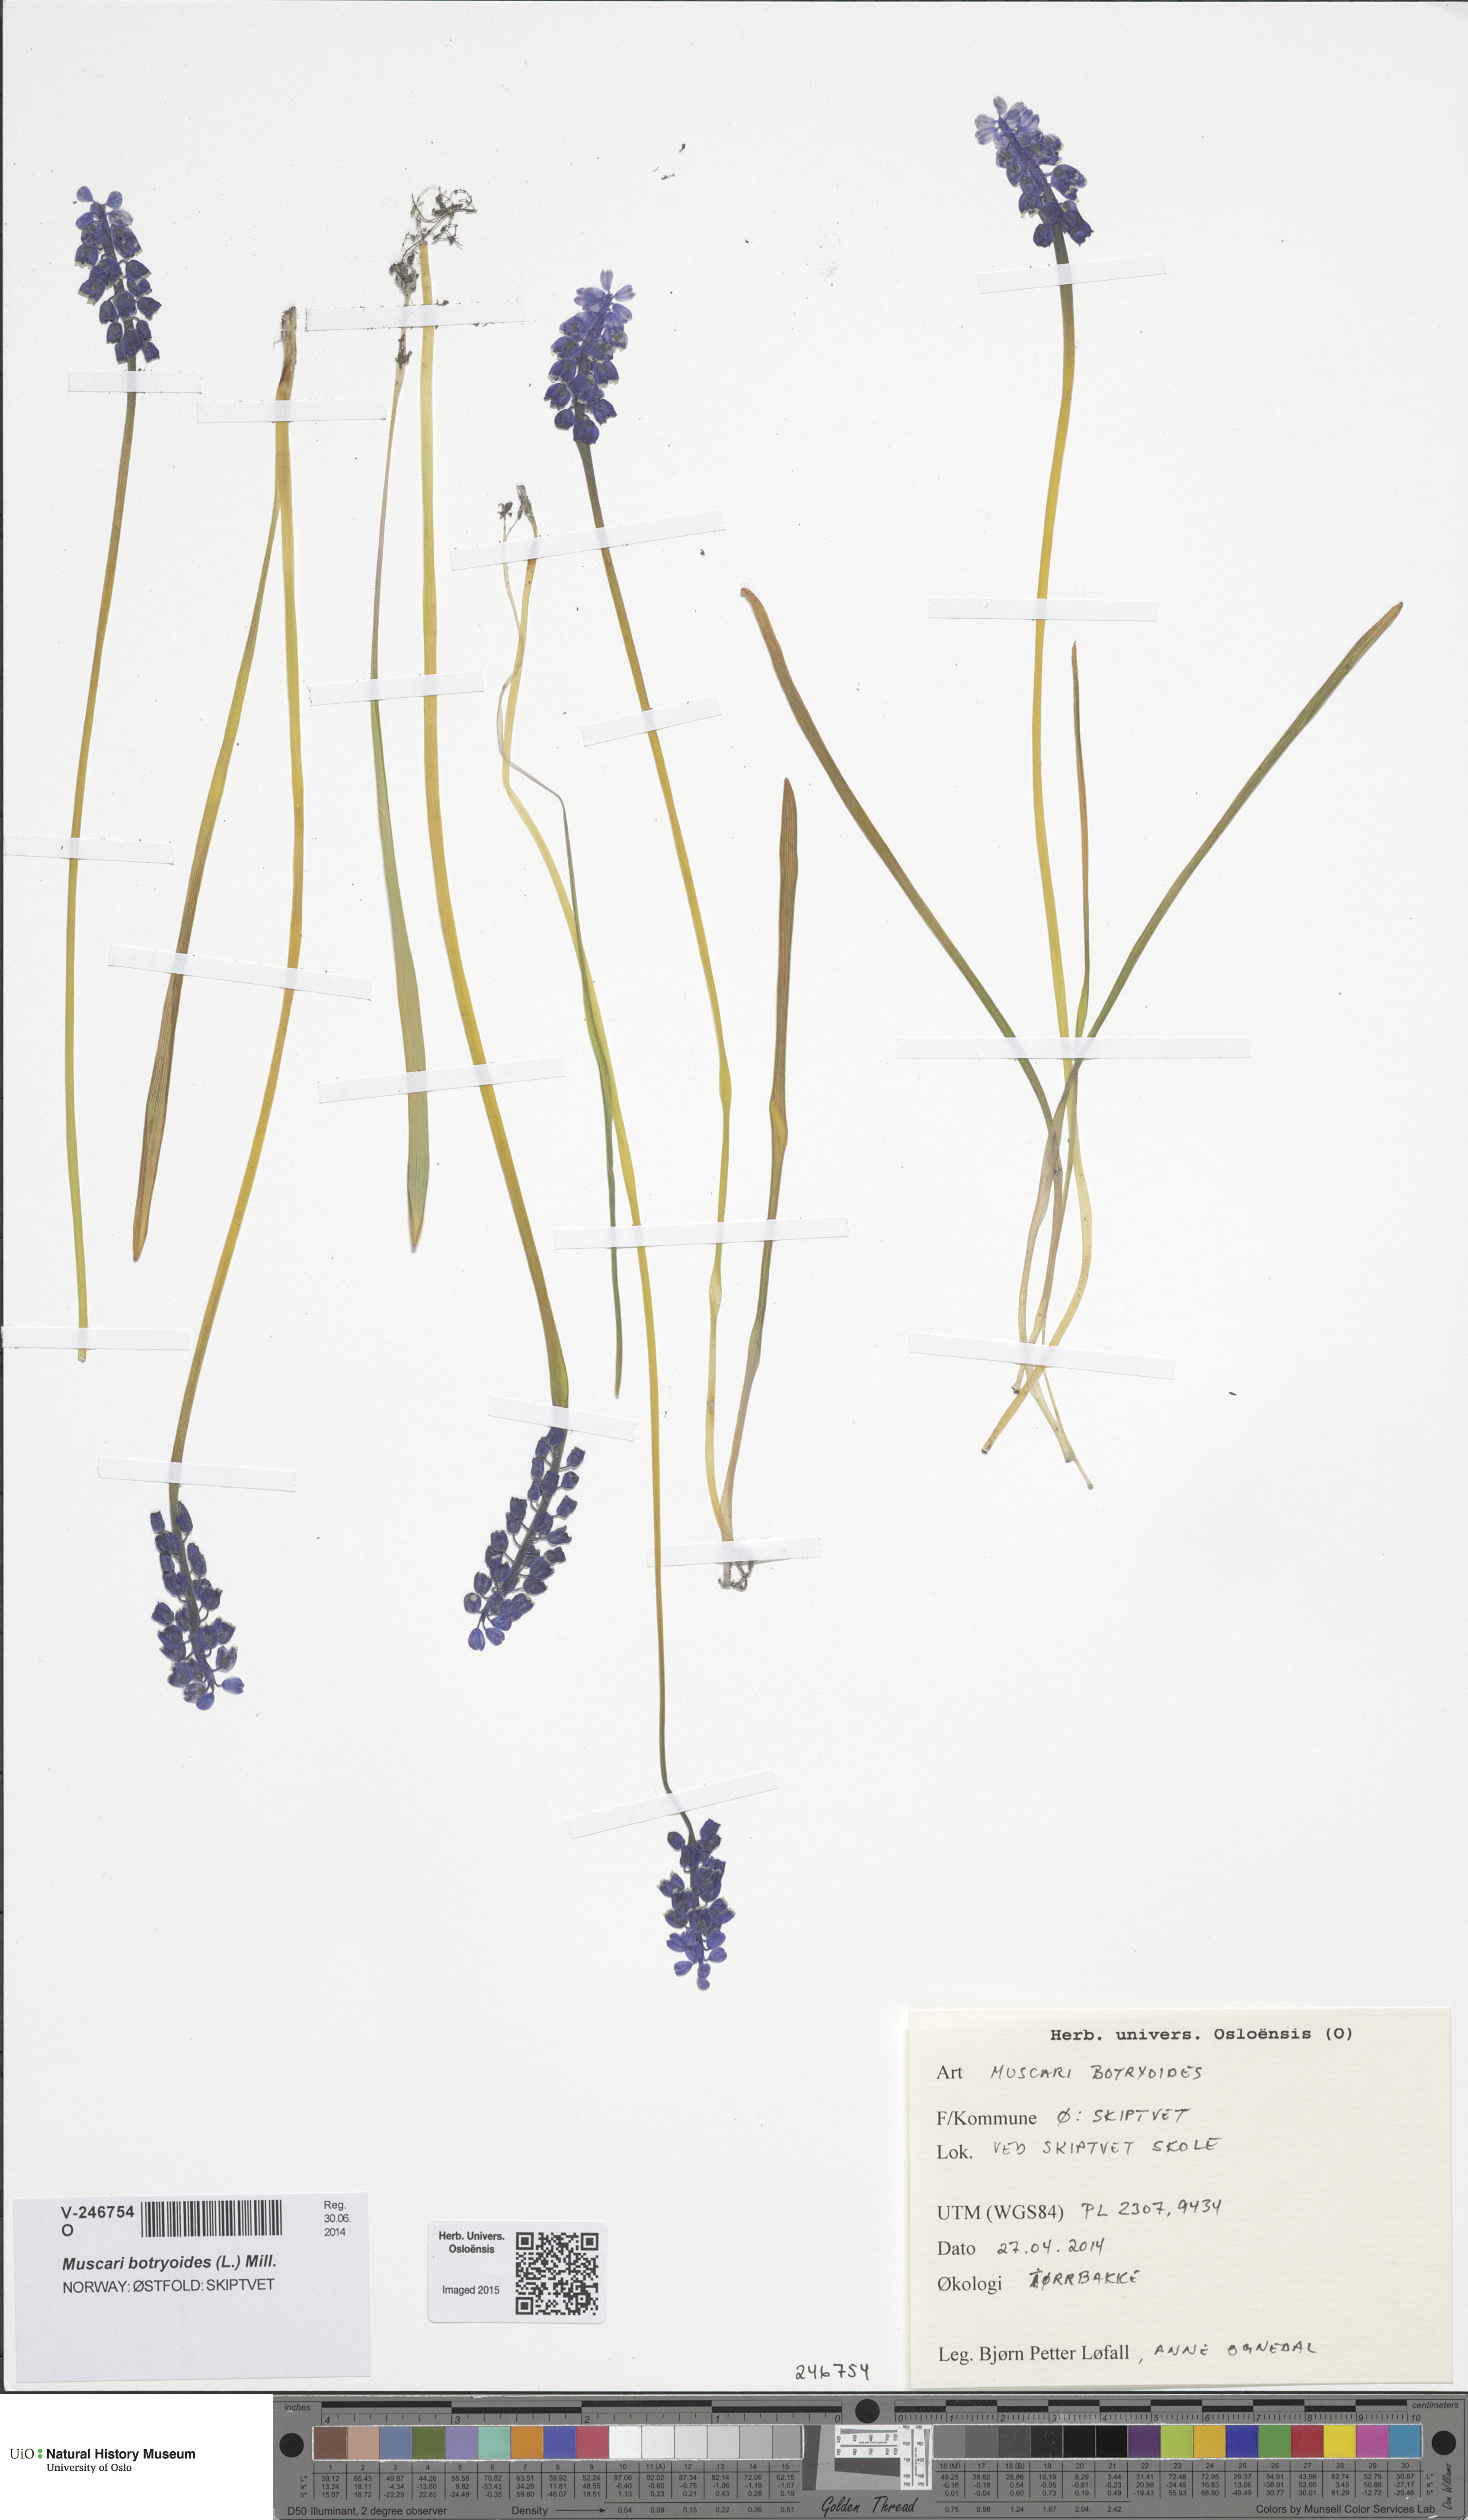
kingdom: Plantae
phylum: Tracheophyta
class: Liliopsida
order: Asparagales
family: Asparagaceae
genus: Muscari
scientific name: Muscari botryoides
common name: Compact grape-hyacinth
